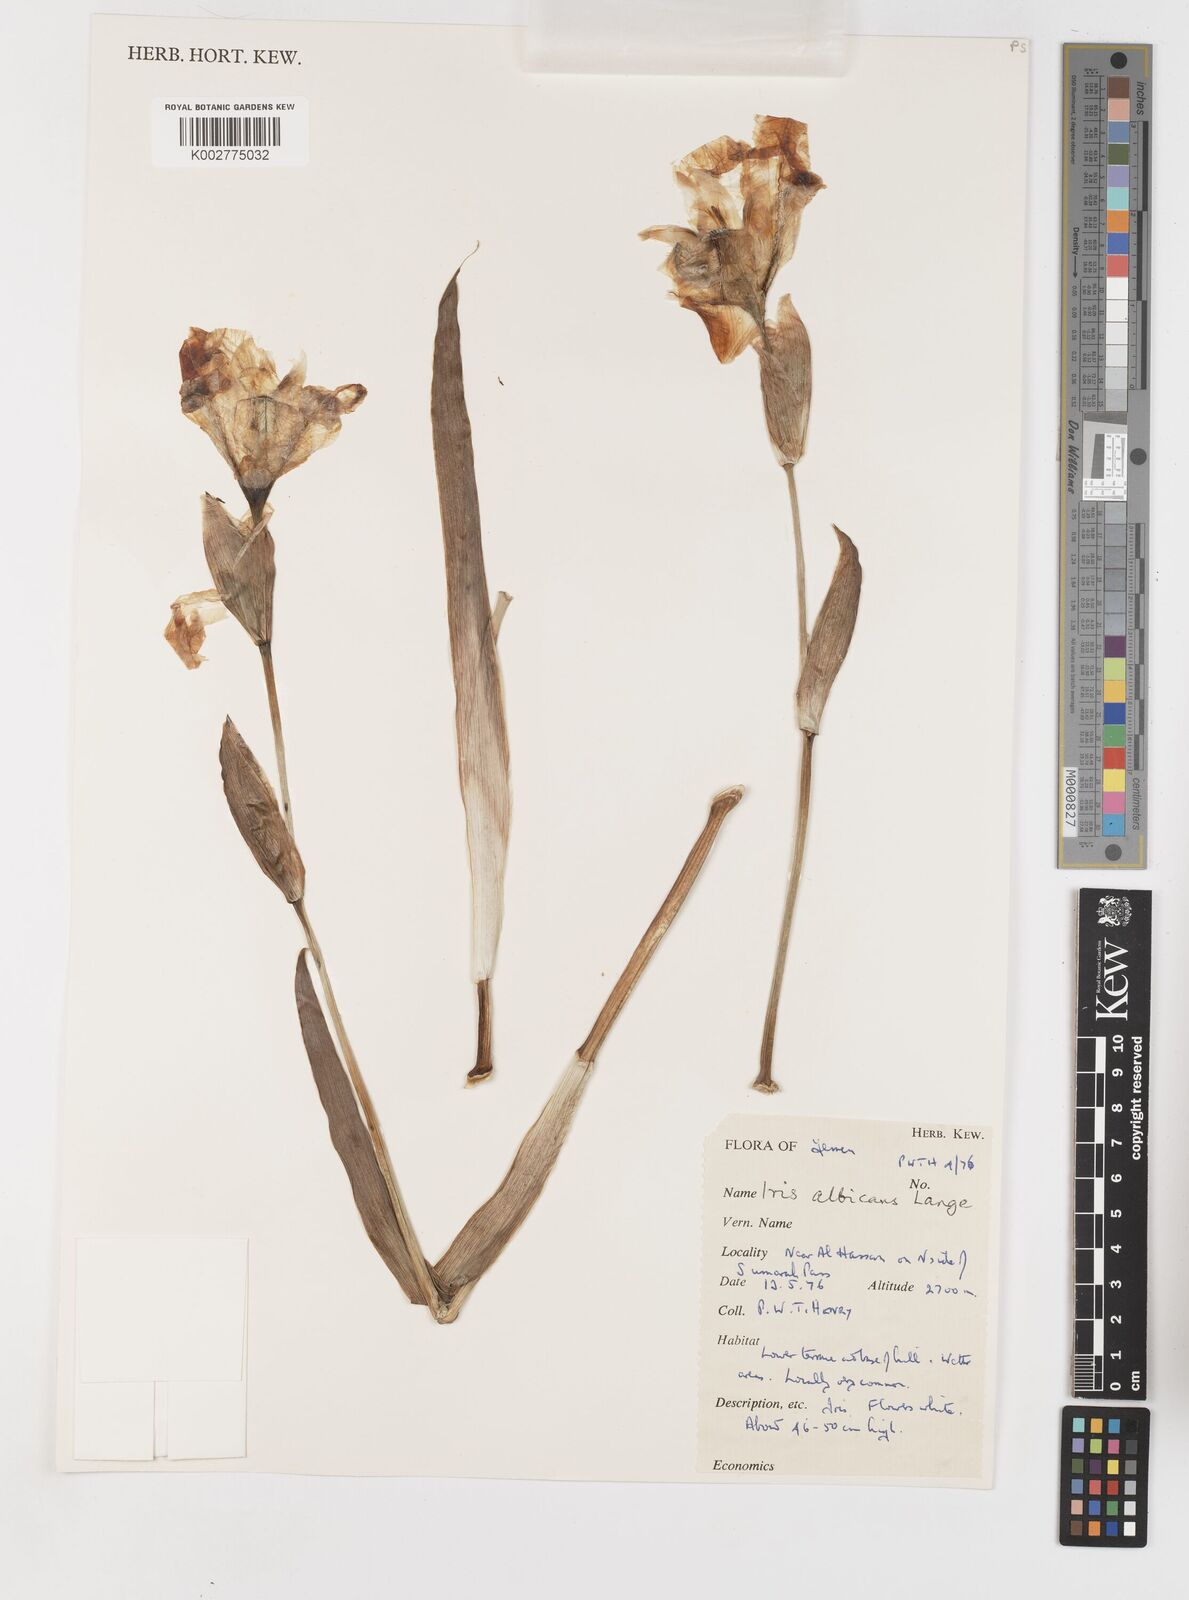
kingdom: Plantae
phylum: Tracheophyta
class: Liliopsida
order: Asparagales
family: Iridaceae
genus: Iris
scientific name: Iris florentina
